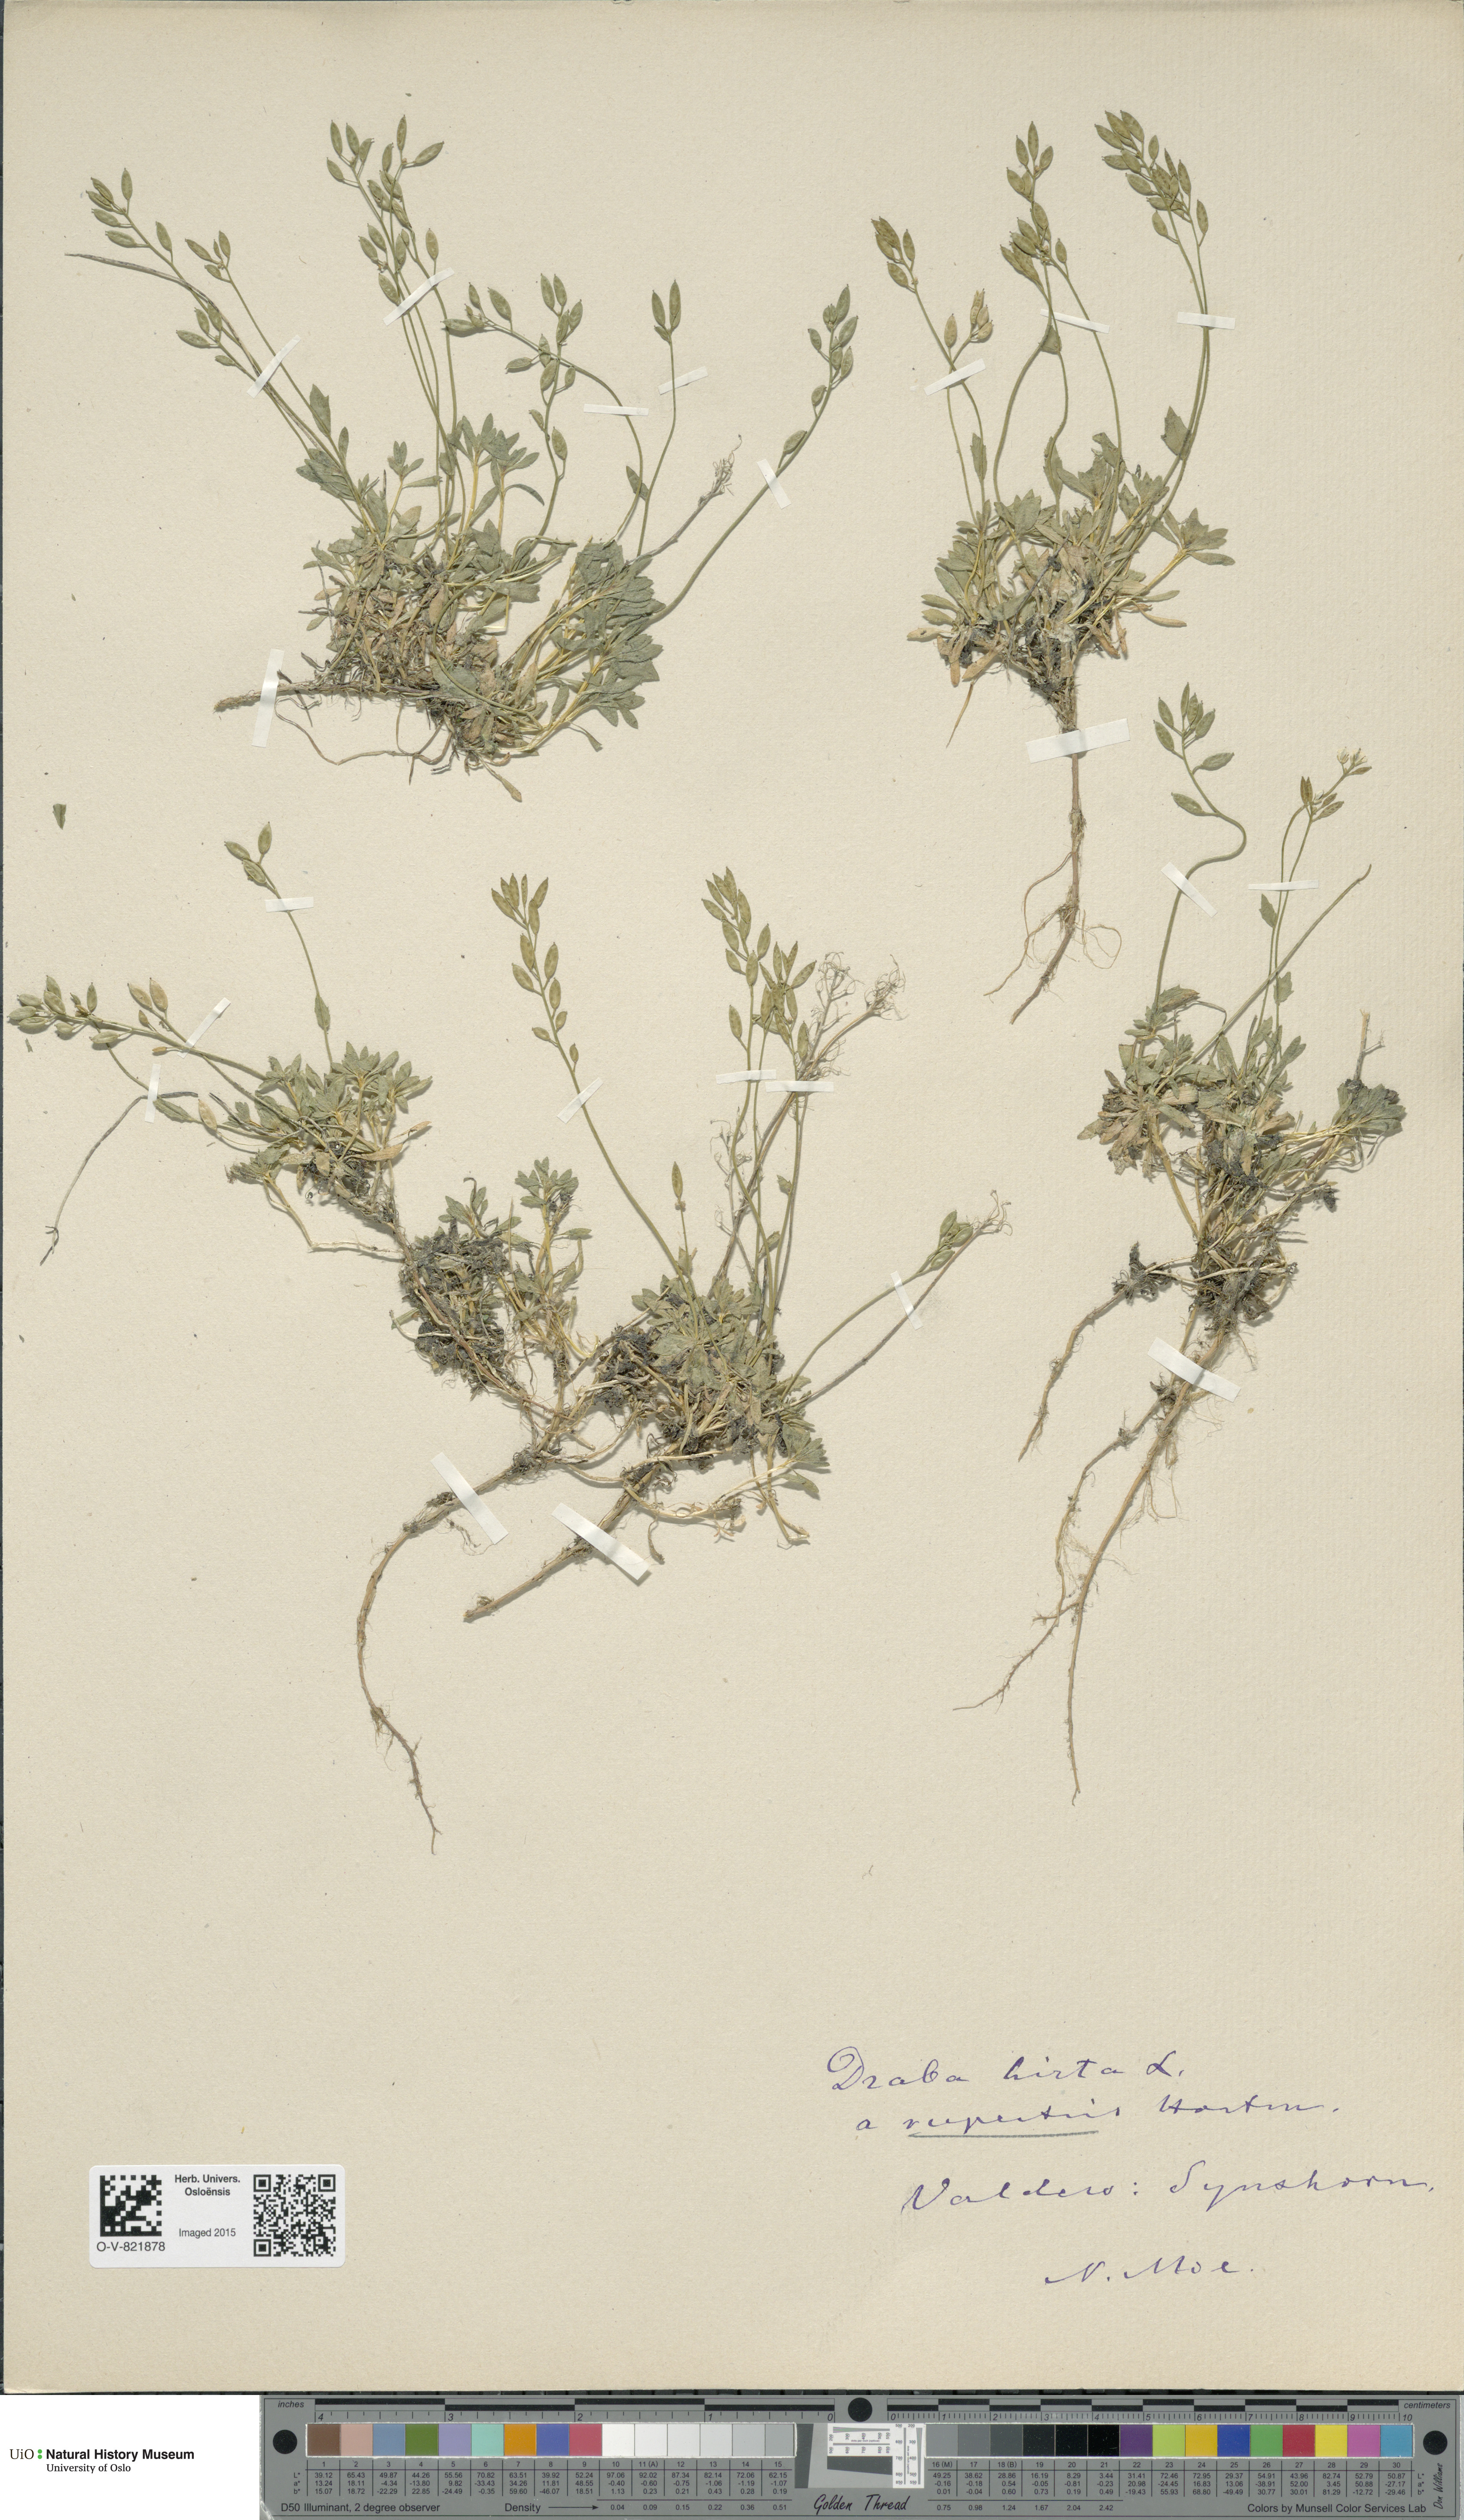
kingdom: Plantae
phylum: Tracheophyta
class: Magnoliopsida
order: Brassicales
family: Brassicaceae
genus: Draba
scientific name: Draba norvegica
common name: Rock whitlowgrass
